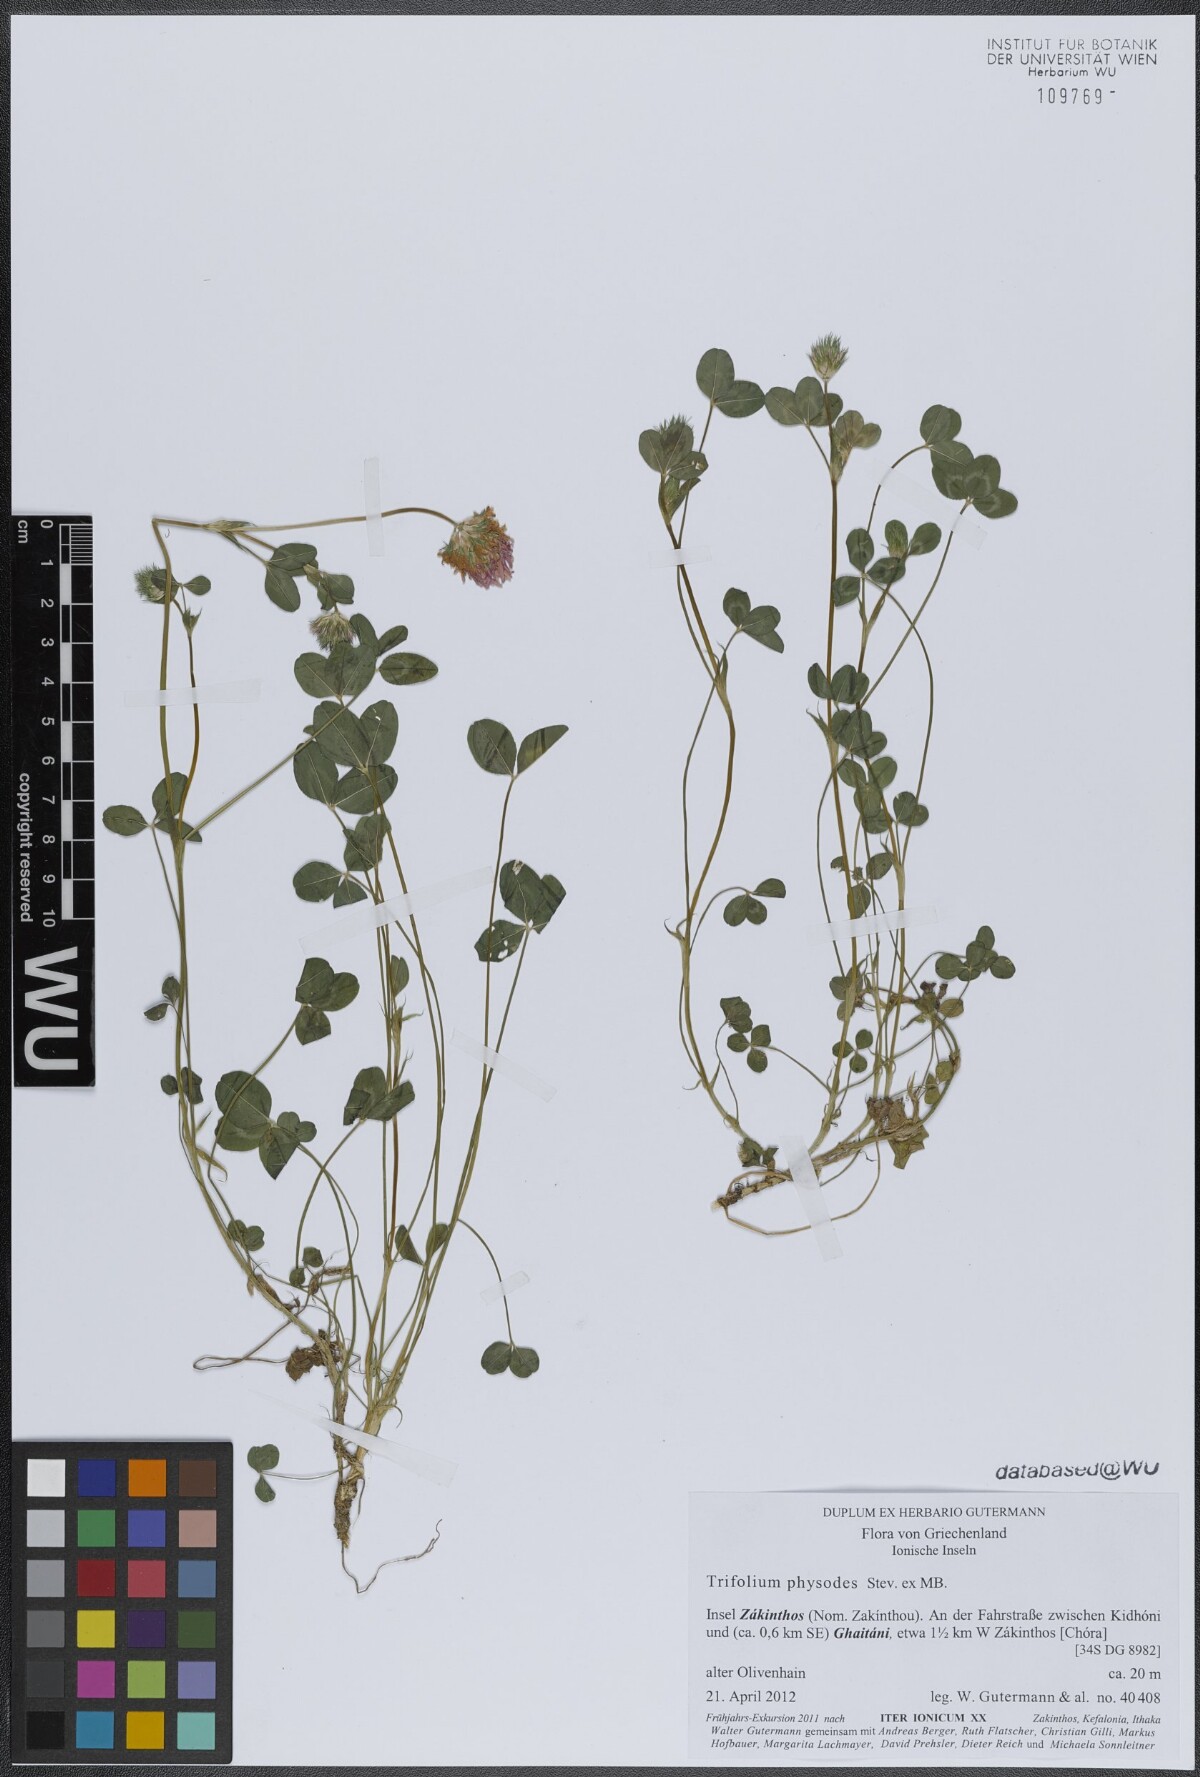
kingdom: Plantae
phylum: Tracheophyta
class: Magnoliopsida
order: Fabales
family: Fabaceae
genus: Trifolium
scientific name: Trifolium physodes
